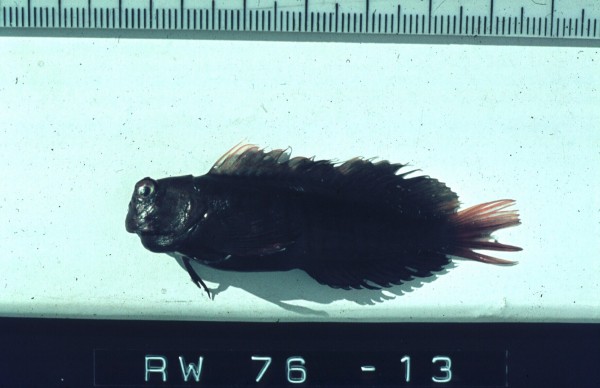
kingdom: Animalia
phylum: Chordata
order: Perciformes
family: Blenniidae
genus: Cirripectes
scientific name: Cirripectes castaneus
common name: Chestnut blenny
